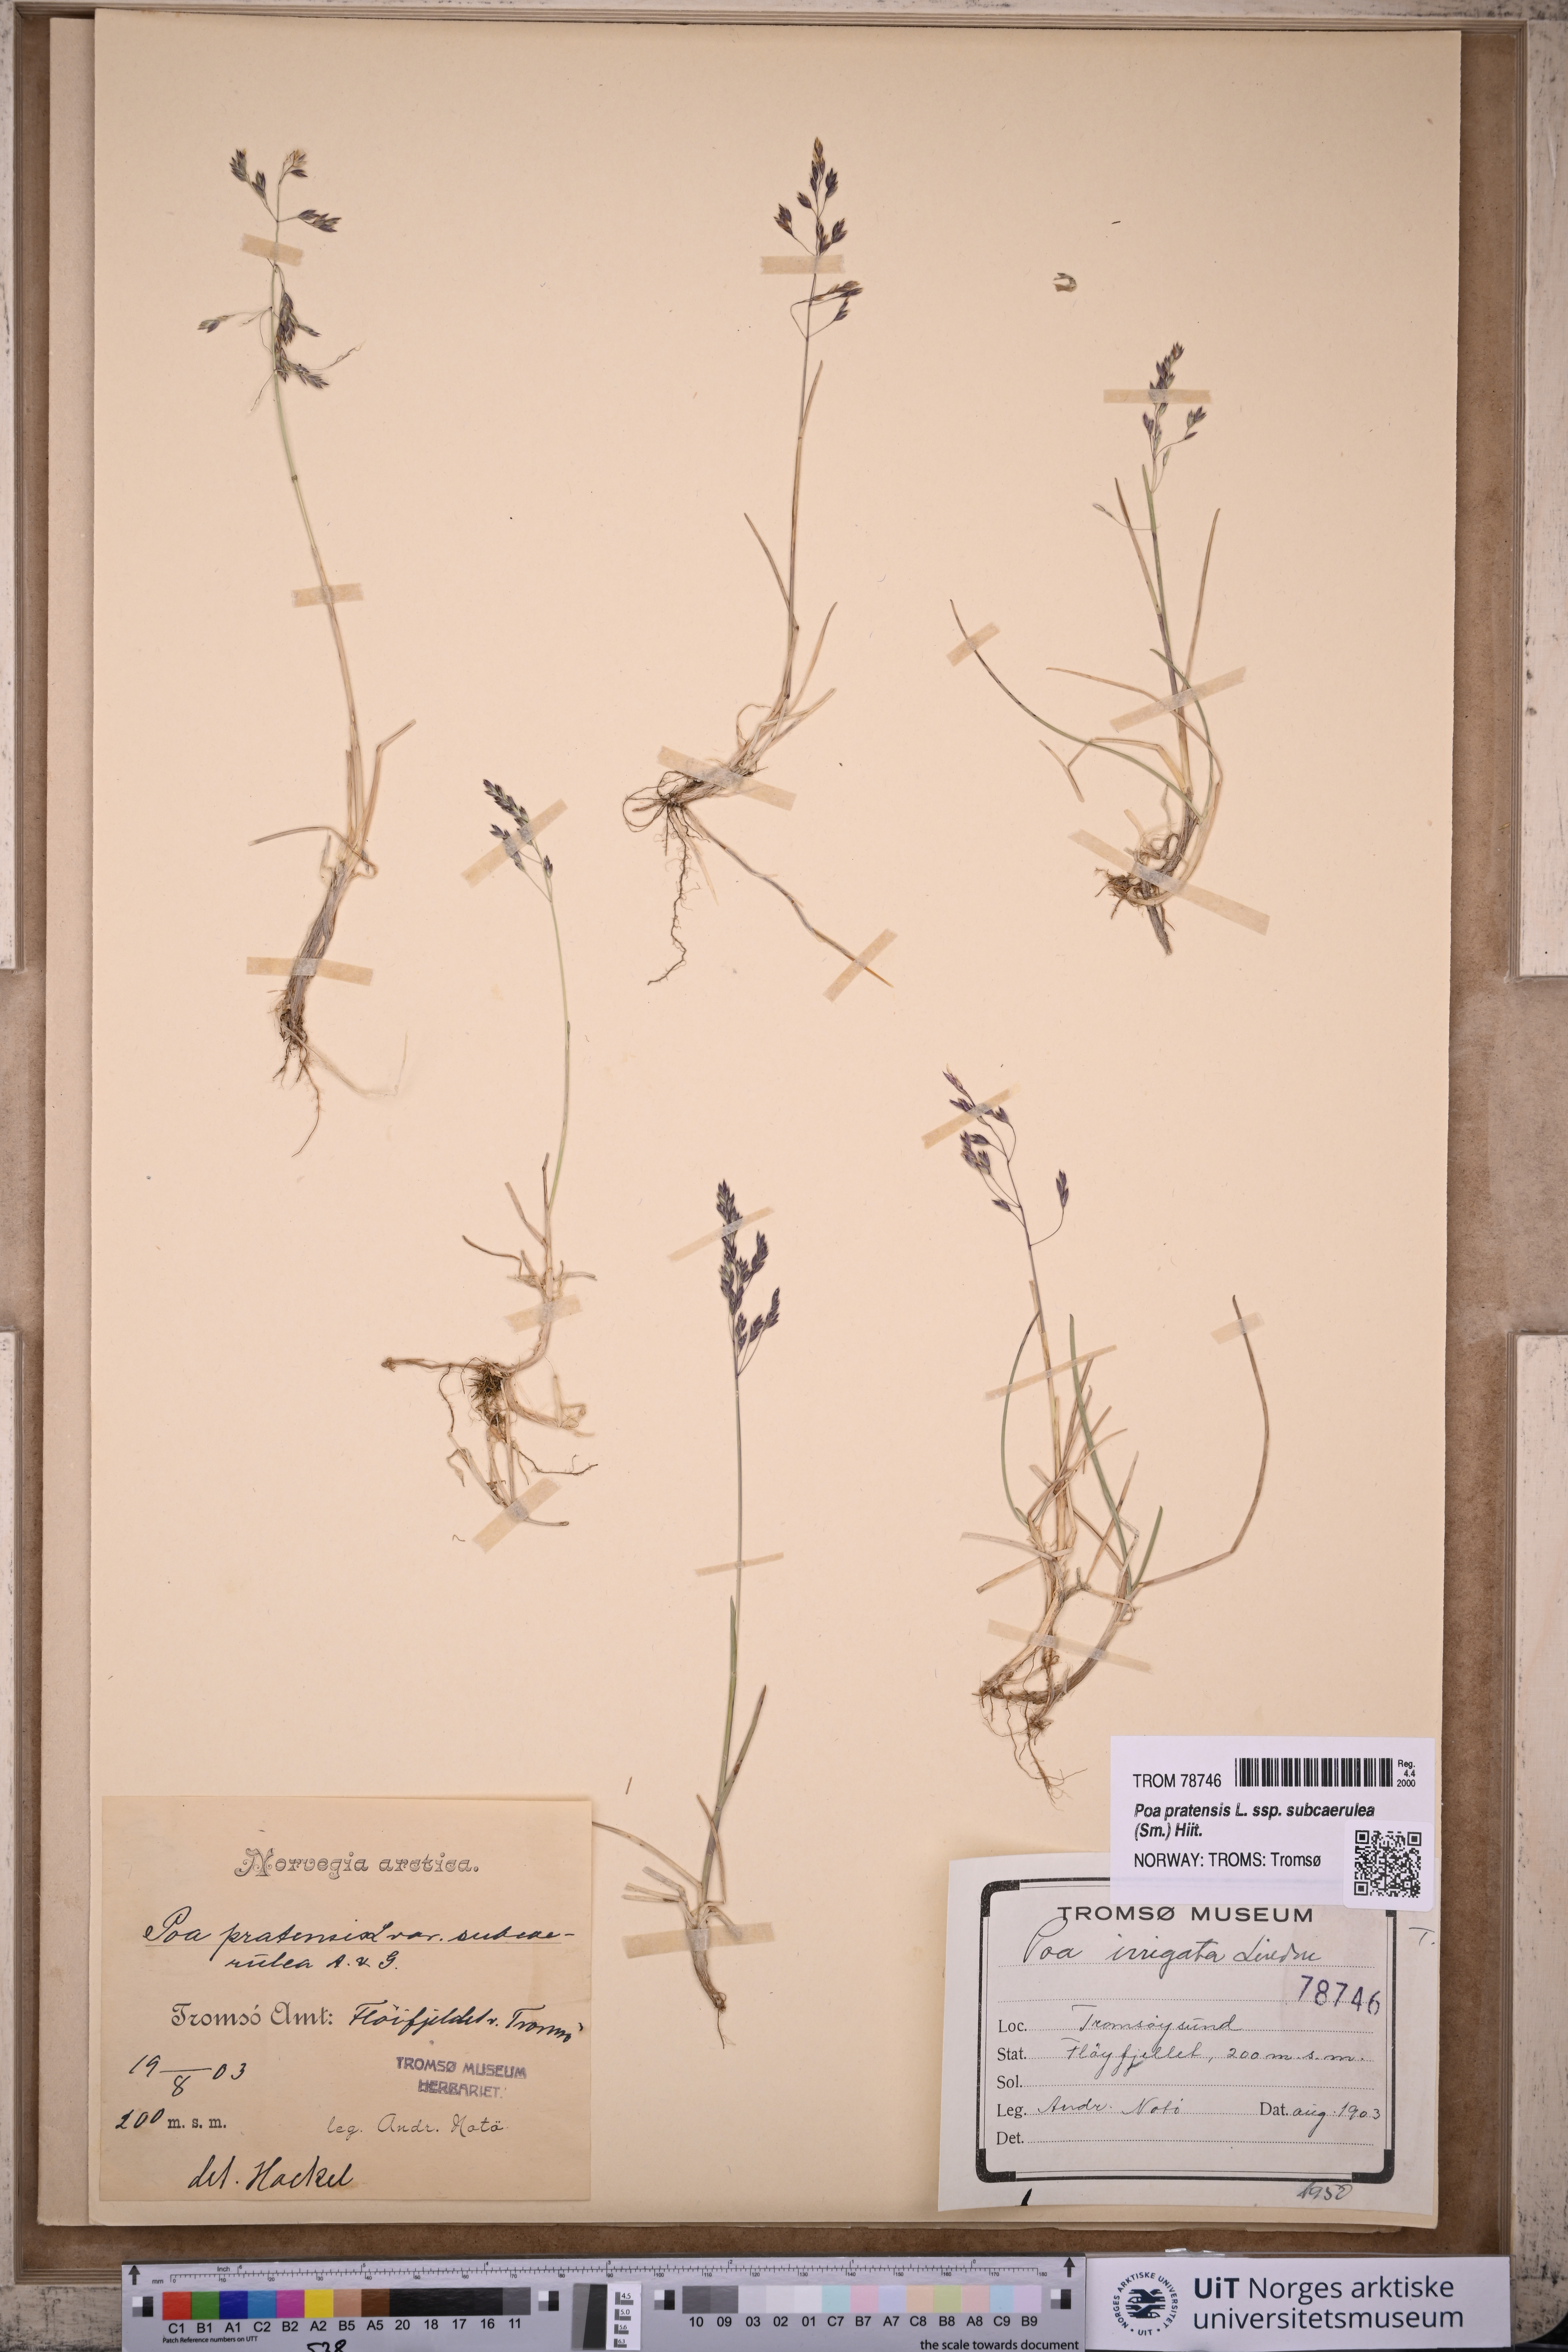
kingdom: Plantae
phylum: Tracheophyta
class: Liliopsida
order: Poales
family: Poaceae
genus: Poa
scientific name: Poa humilis
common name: Spreading meadow-grass
